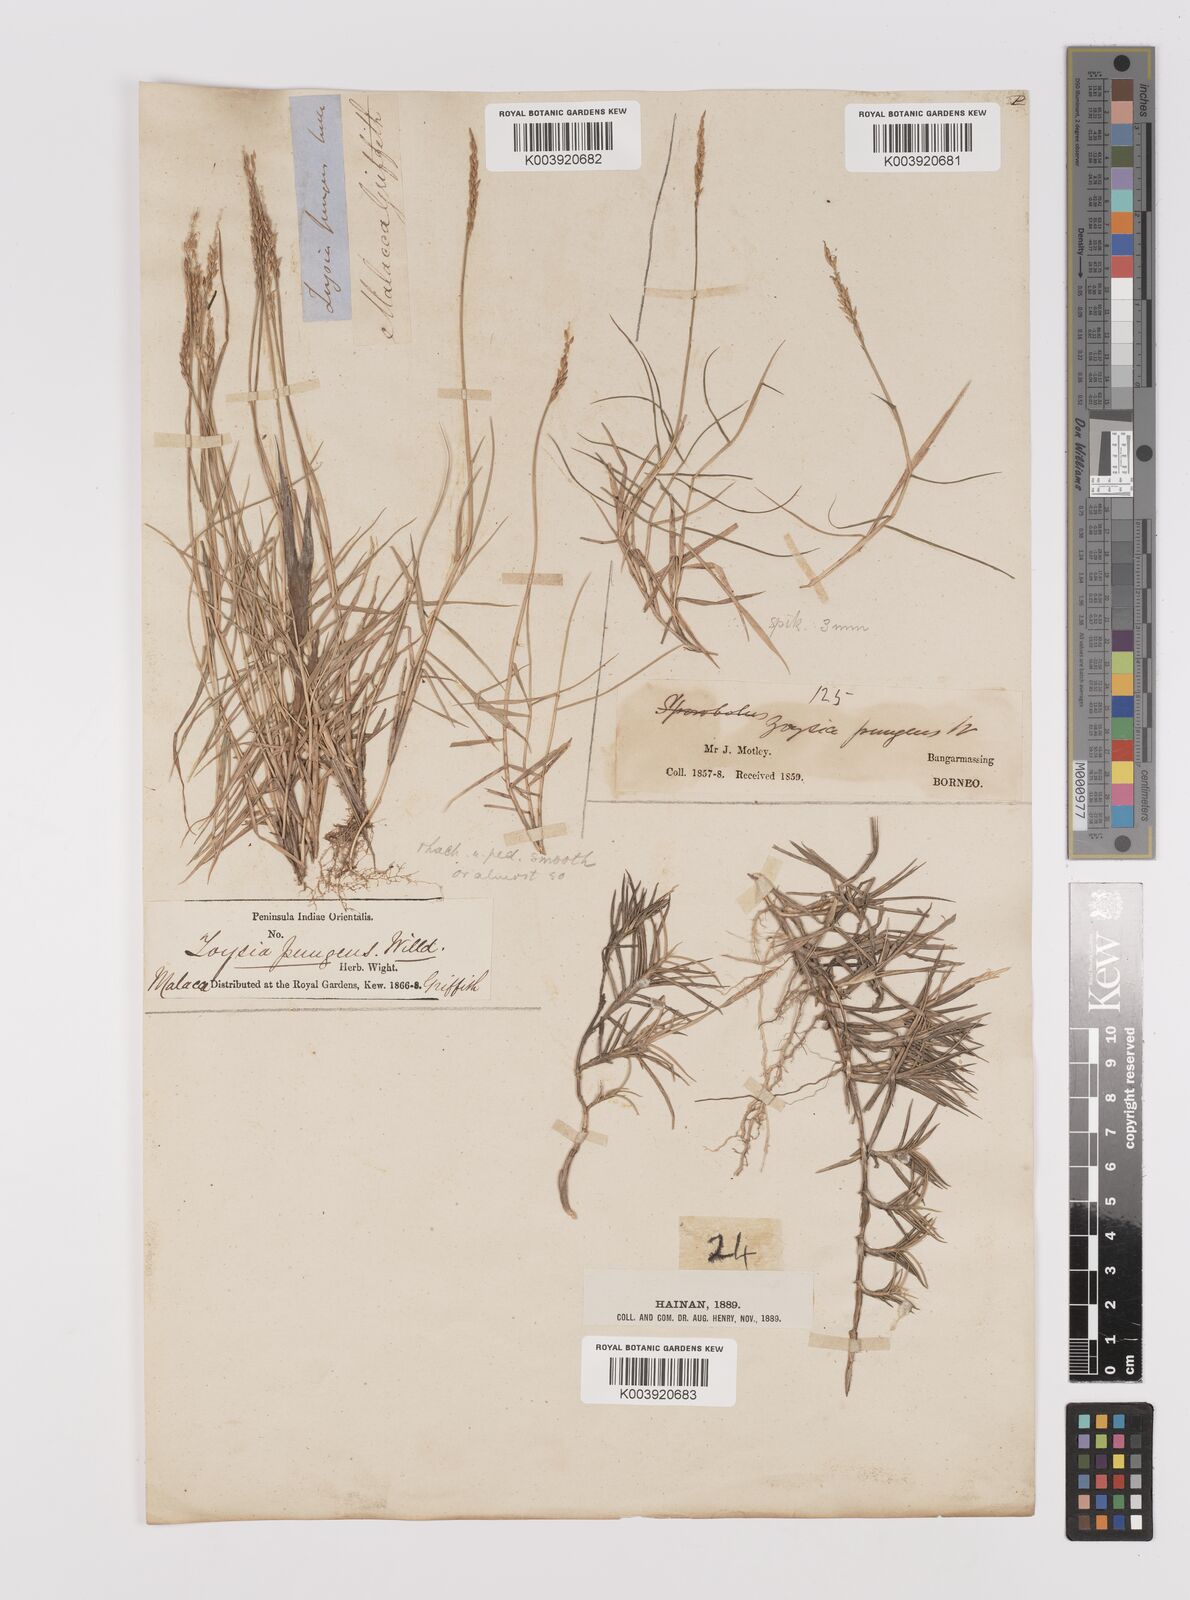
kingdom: Plantae
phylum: Tracheophyta
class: Liliopsida
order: Poales
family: Poaceae
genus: Zoysia
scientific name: Zoysia matrella
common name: Manila grass
